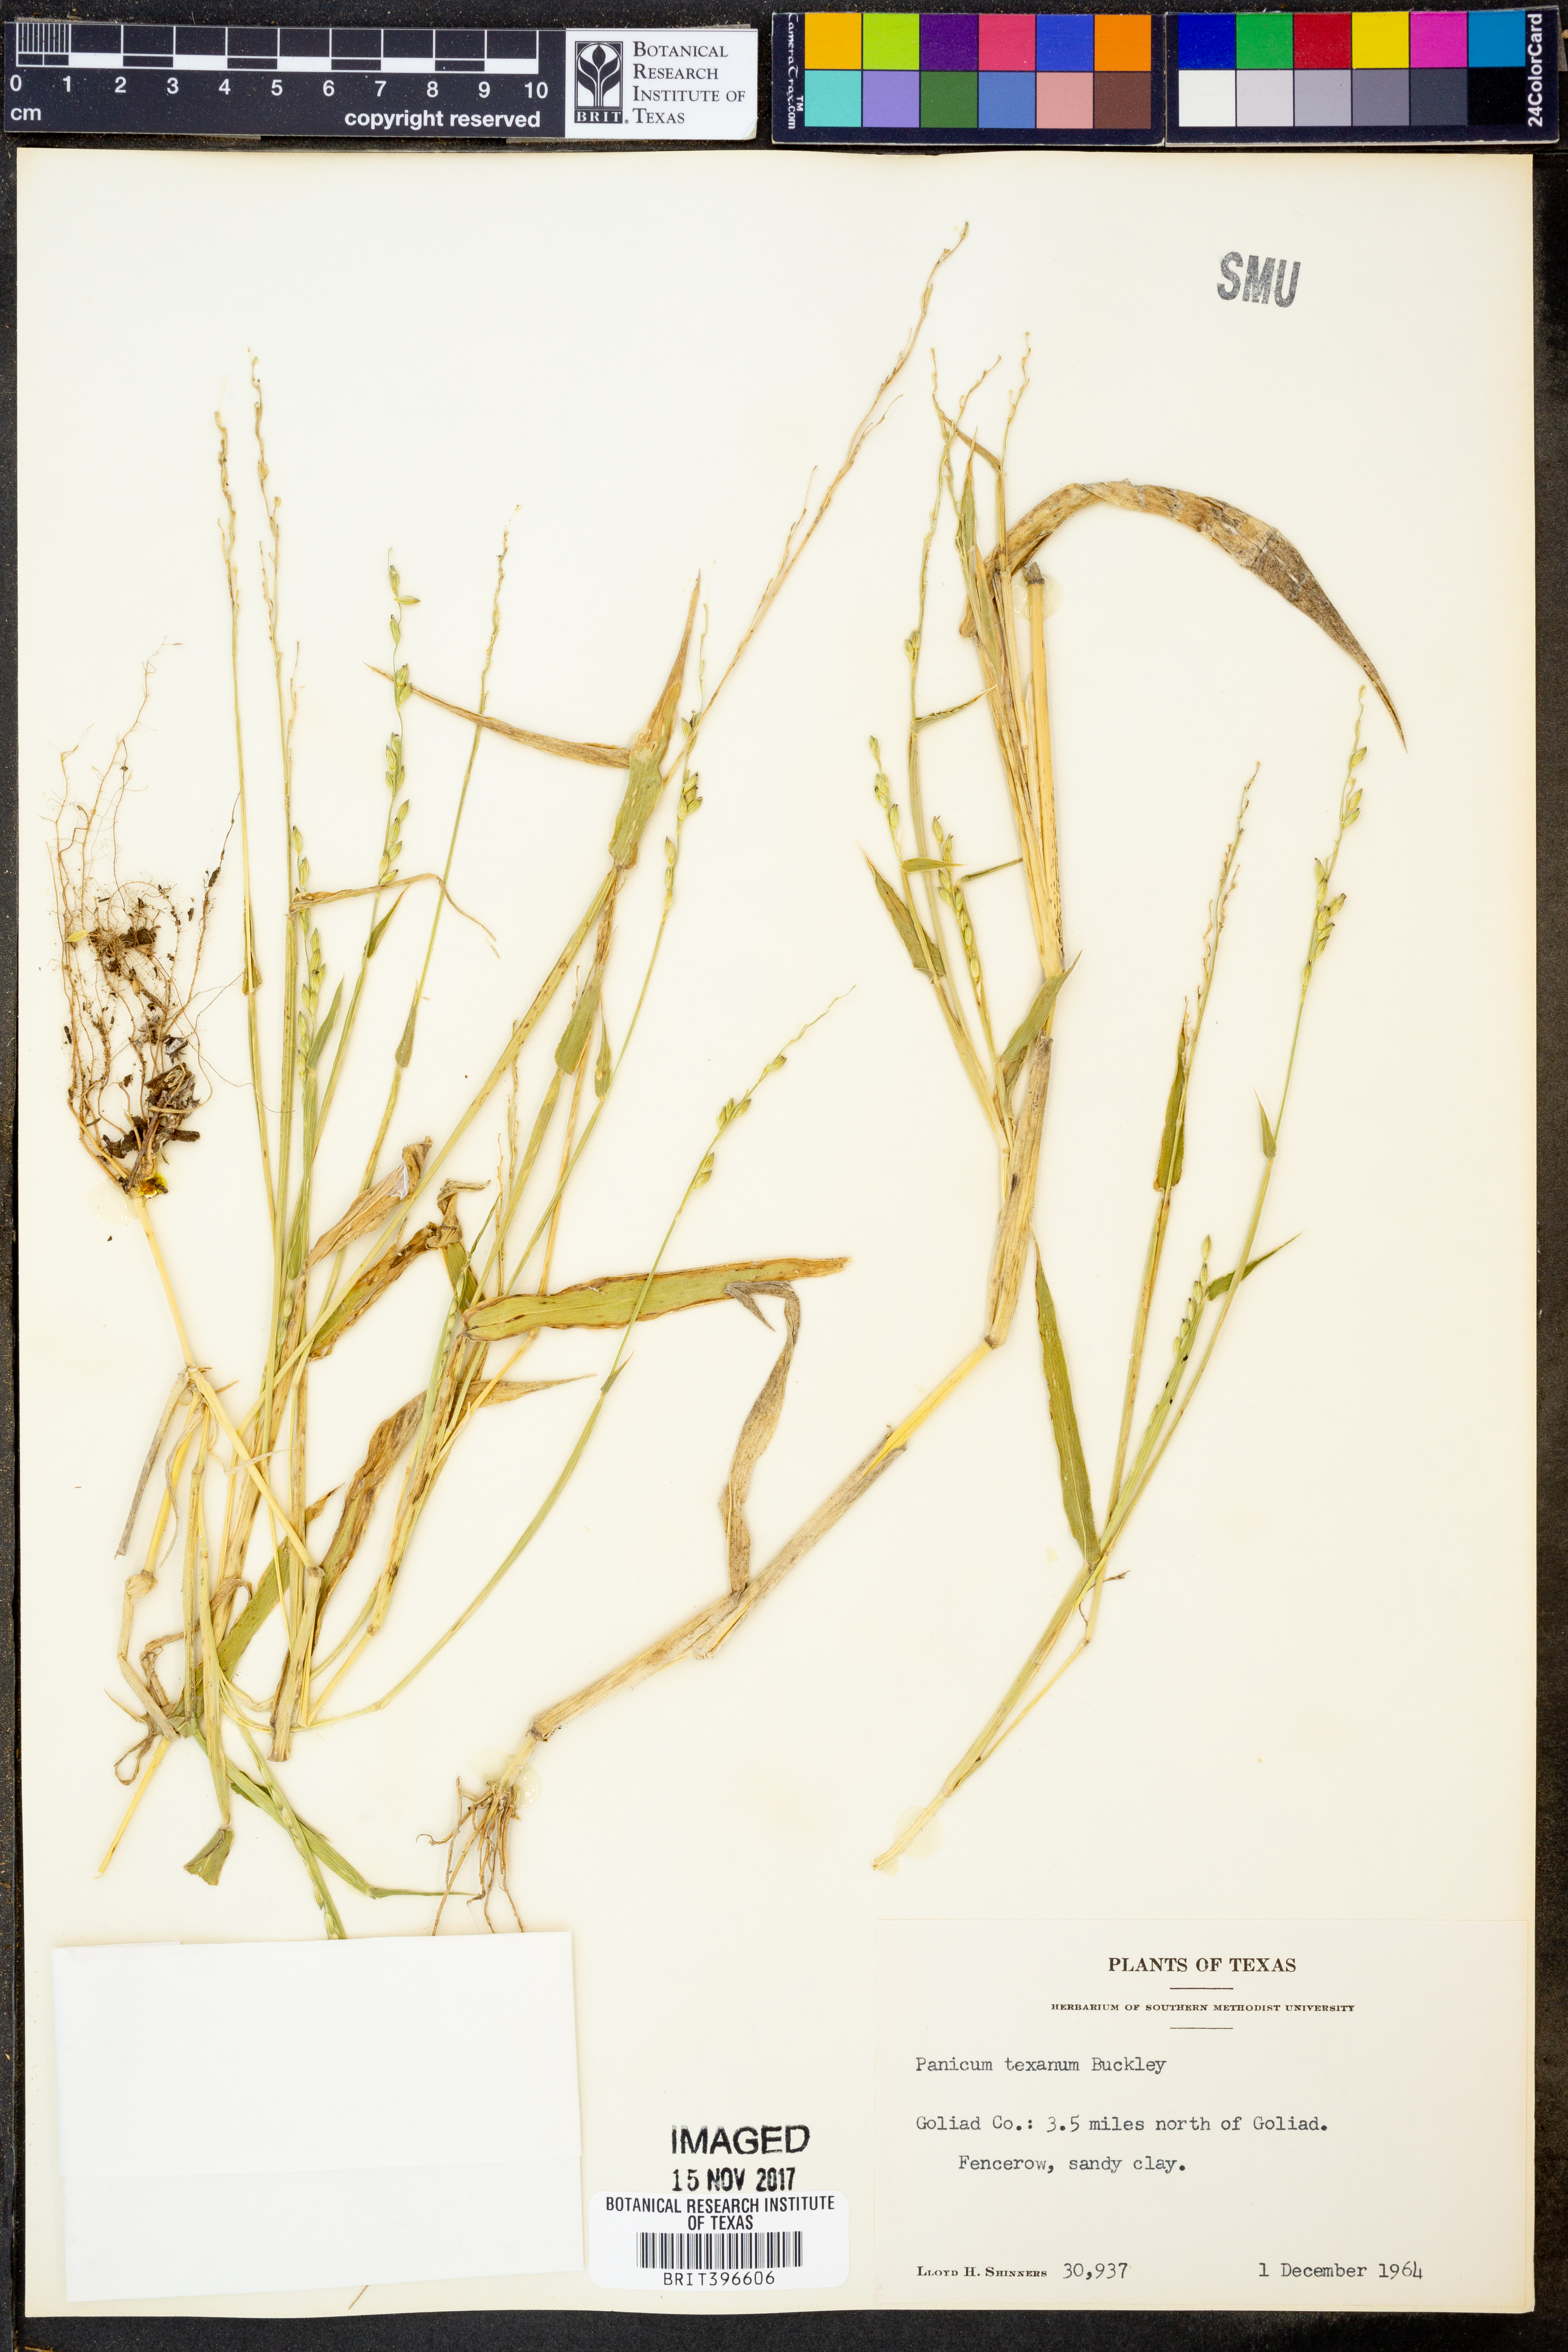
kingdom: Plantae
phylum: Tracheophyta
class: Liliopsida
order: Poales
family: Poaceae
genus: Urochloa
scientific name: Urochloa texana
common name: Texas millet
